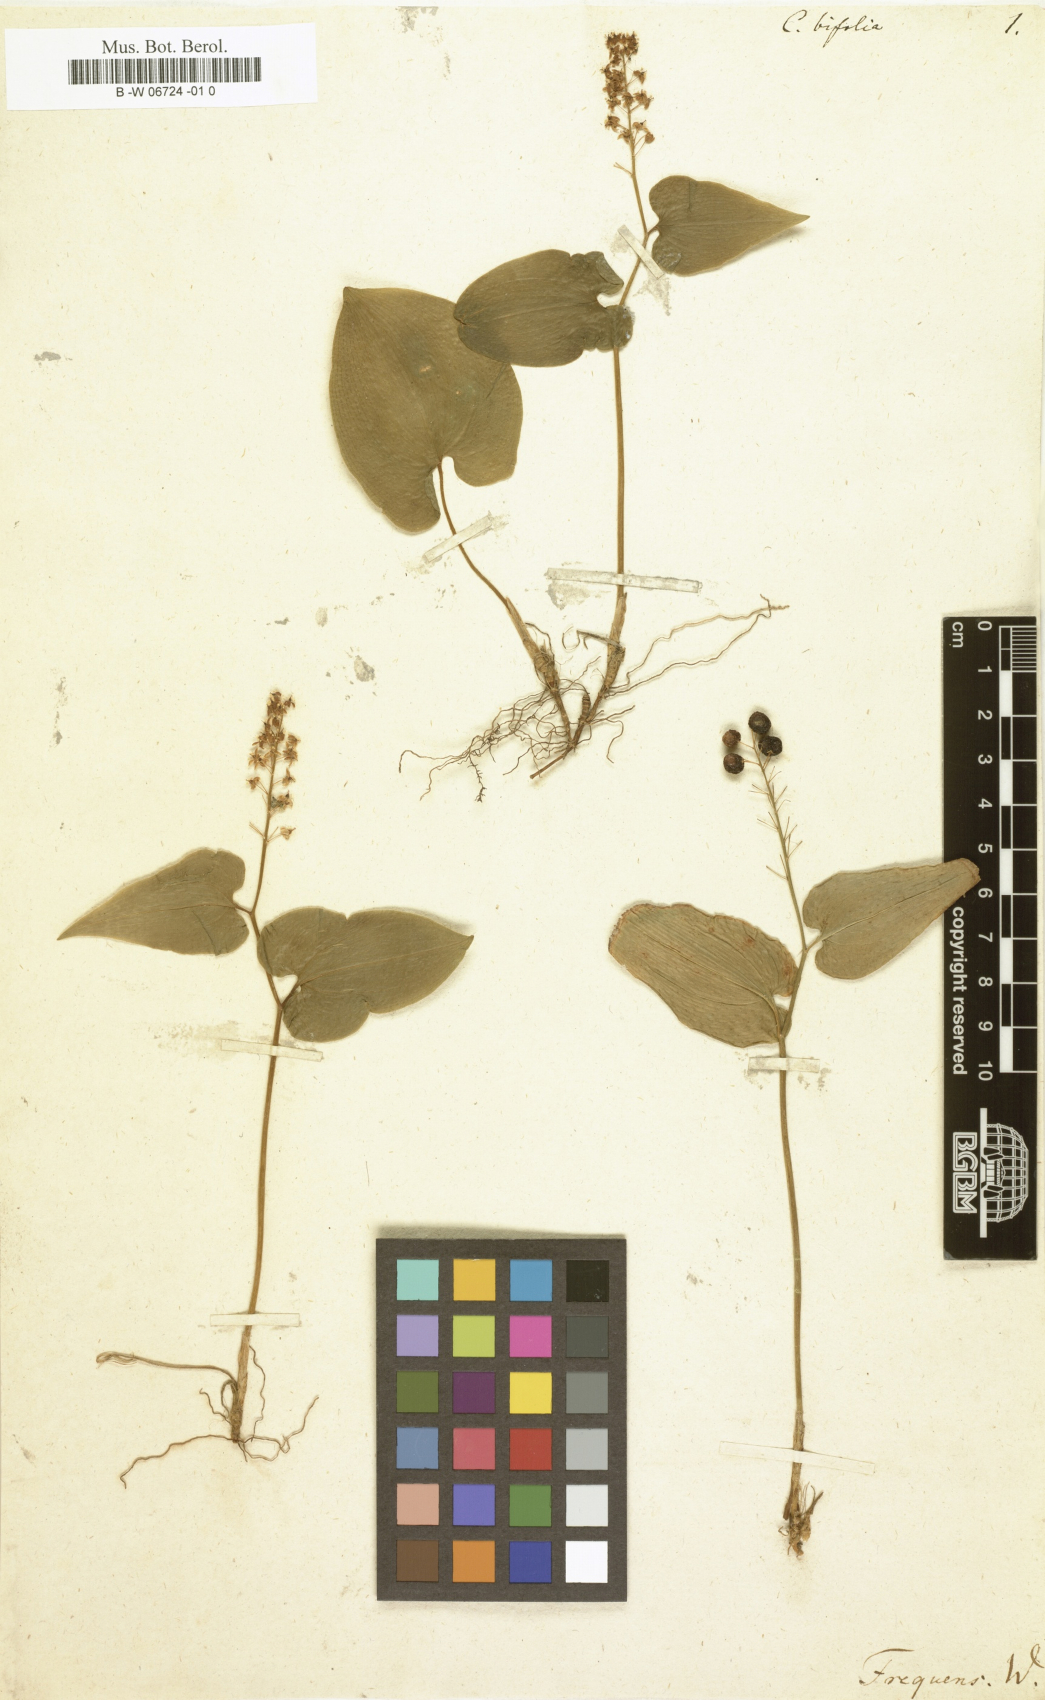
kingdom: Plantae
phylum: Tracheophyta
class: Liliopsida
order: Asparagales
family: Asparagaceae
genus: Maianthemum
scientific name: Maianthemum bifolium
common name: May lily
